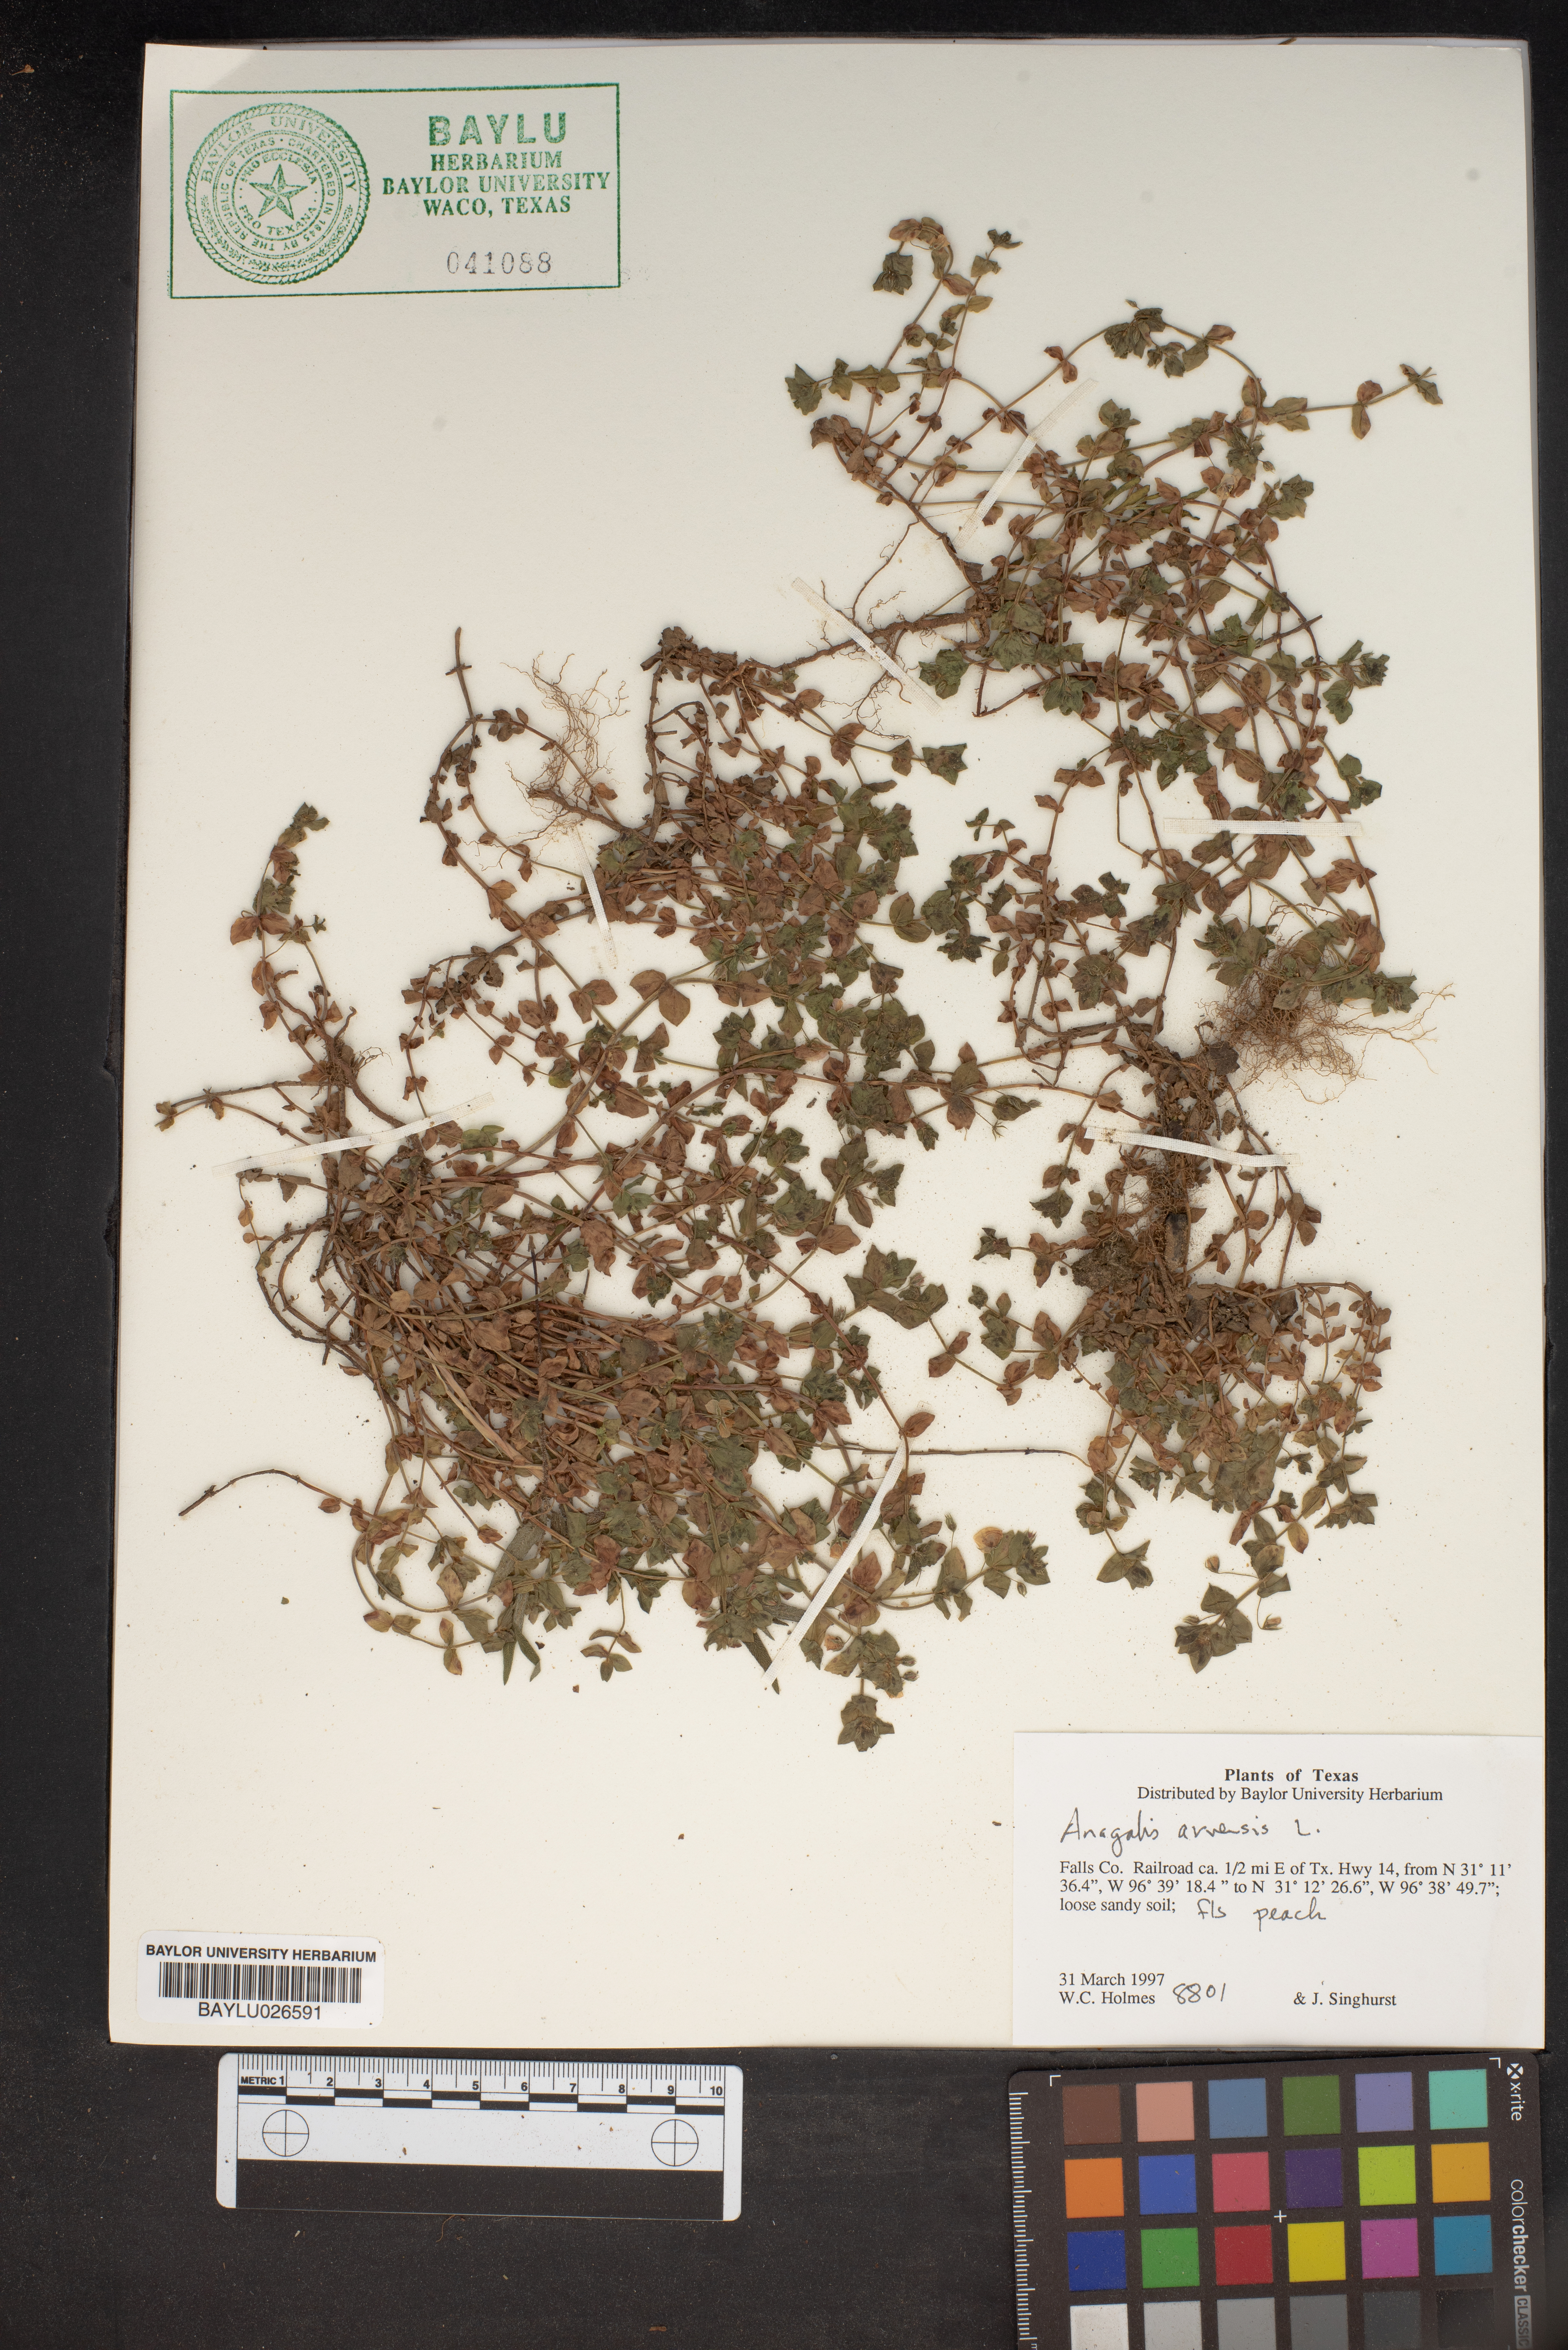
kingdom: Plantae
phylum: Tracheophyta
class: Magnoliopsida
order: Ericales
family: Primulaceae
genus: Lysimachia
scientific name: Lysimachia arvensis
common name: Scarlet pimpernel
